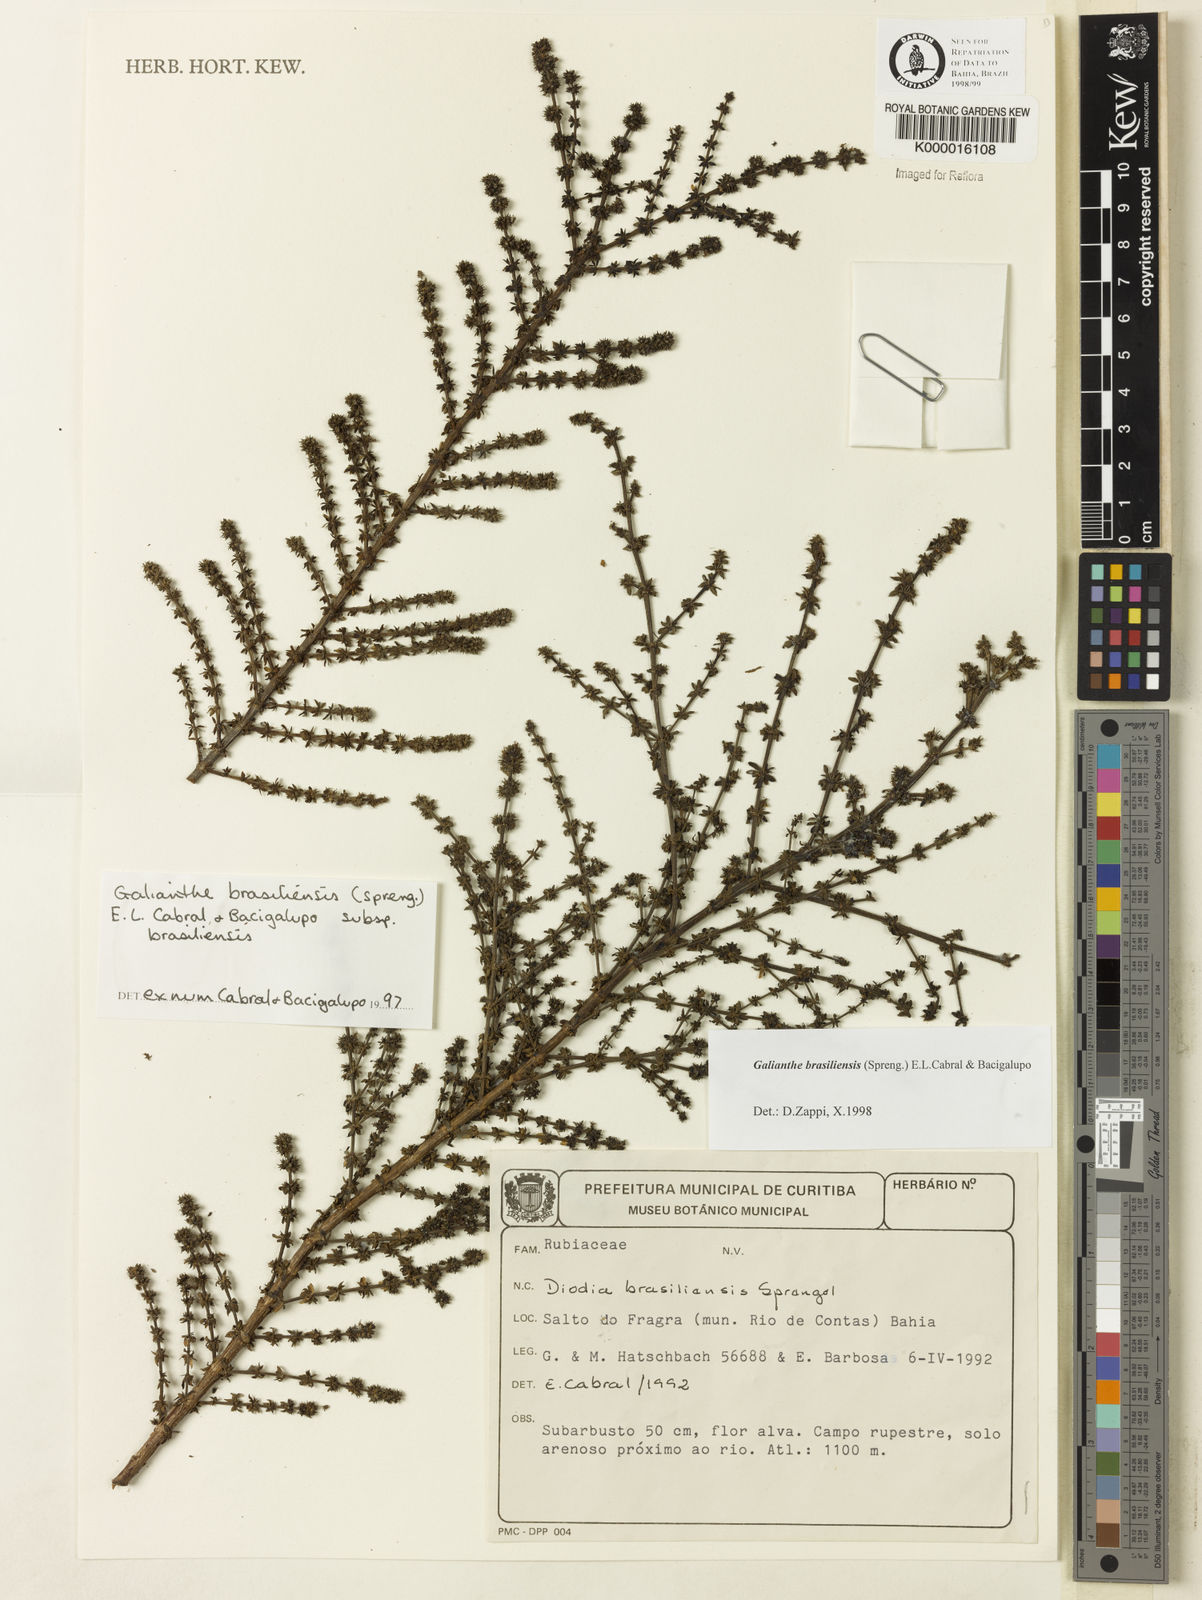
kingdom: Plantae
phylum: Tracheophyta
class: Magnoliopsida
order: Gentianales
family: Rubiaceae
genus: Galianthe
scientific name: Galianthe brasiliensis
